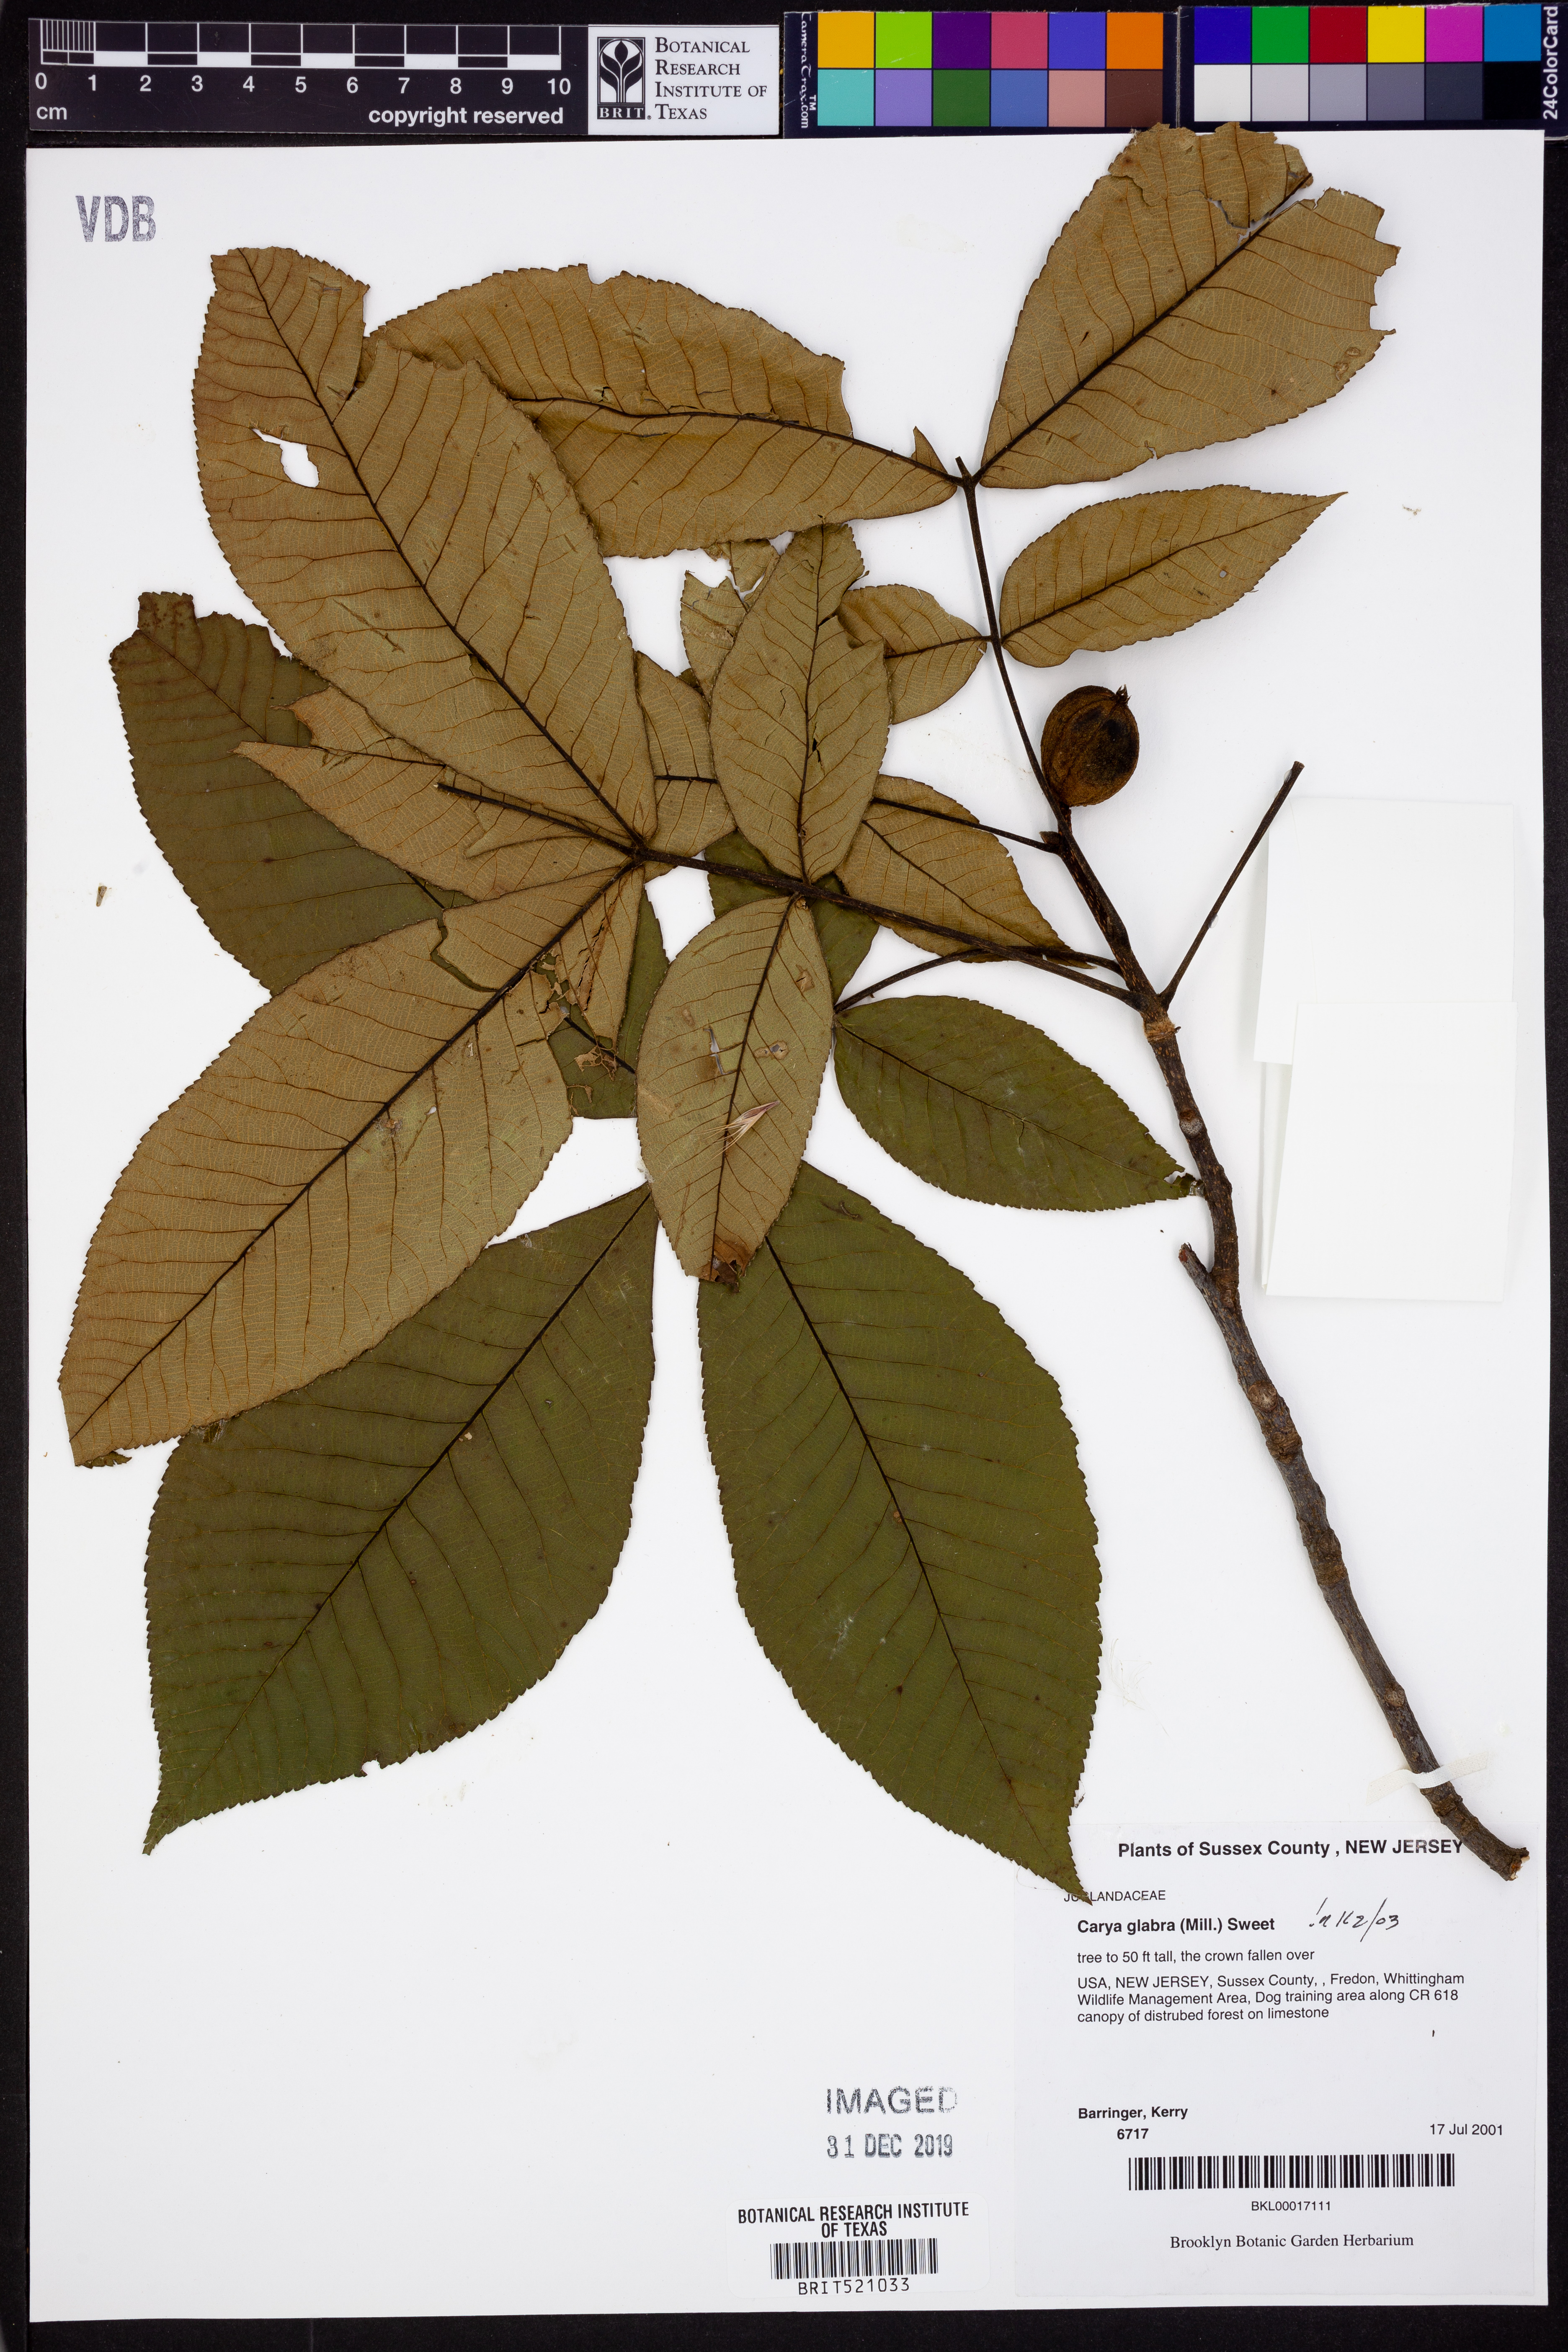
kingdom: Plantae
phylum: Tracheophyta
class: Magnoliopsida
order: Fagales
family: Juglandaceae
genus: Carya
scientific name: Carya glabra
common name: Pignut hickory
